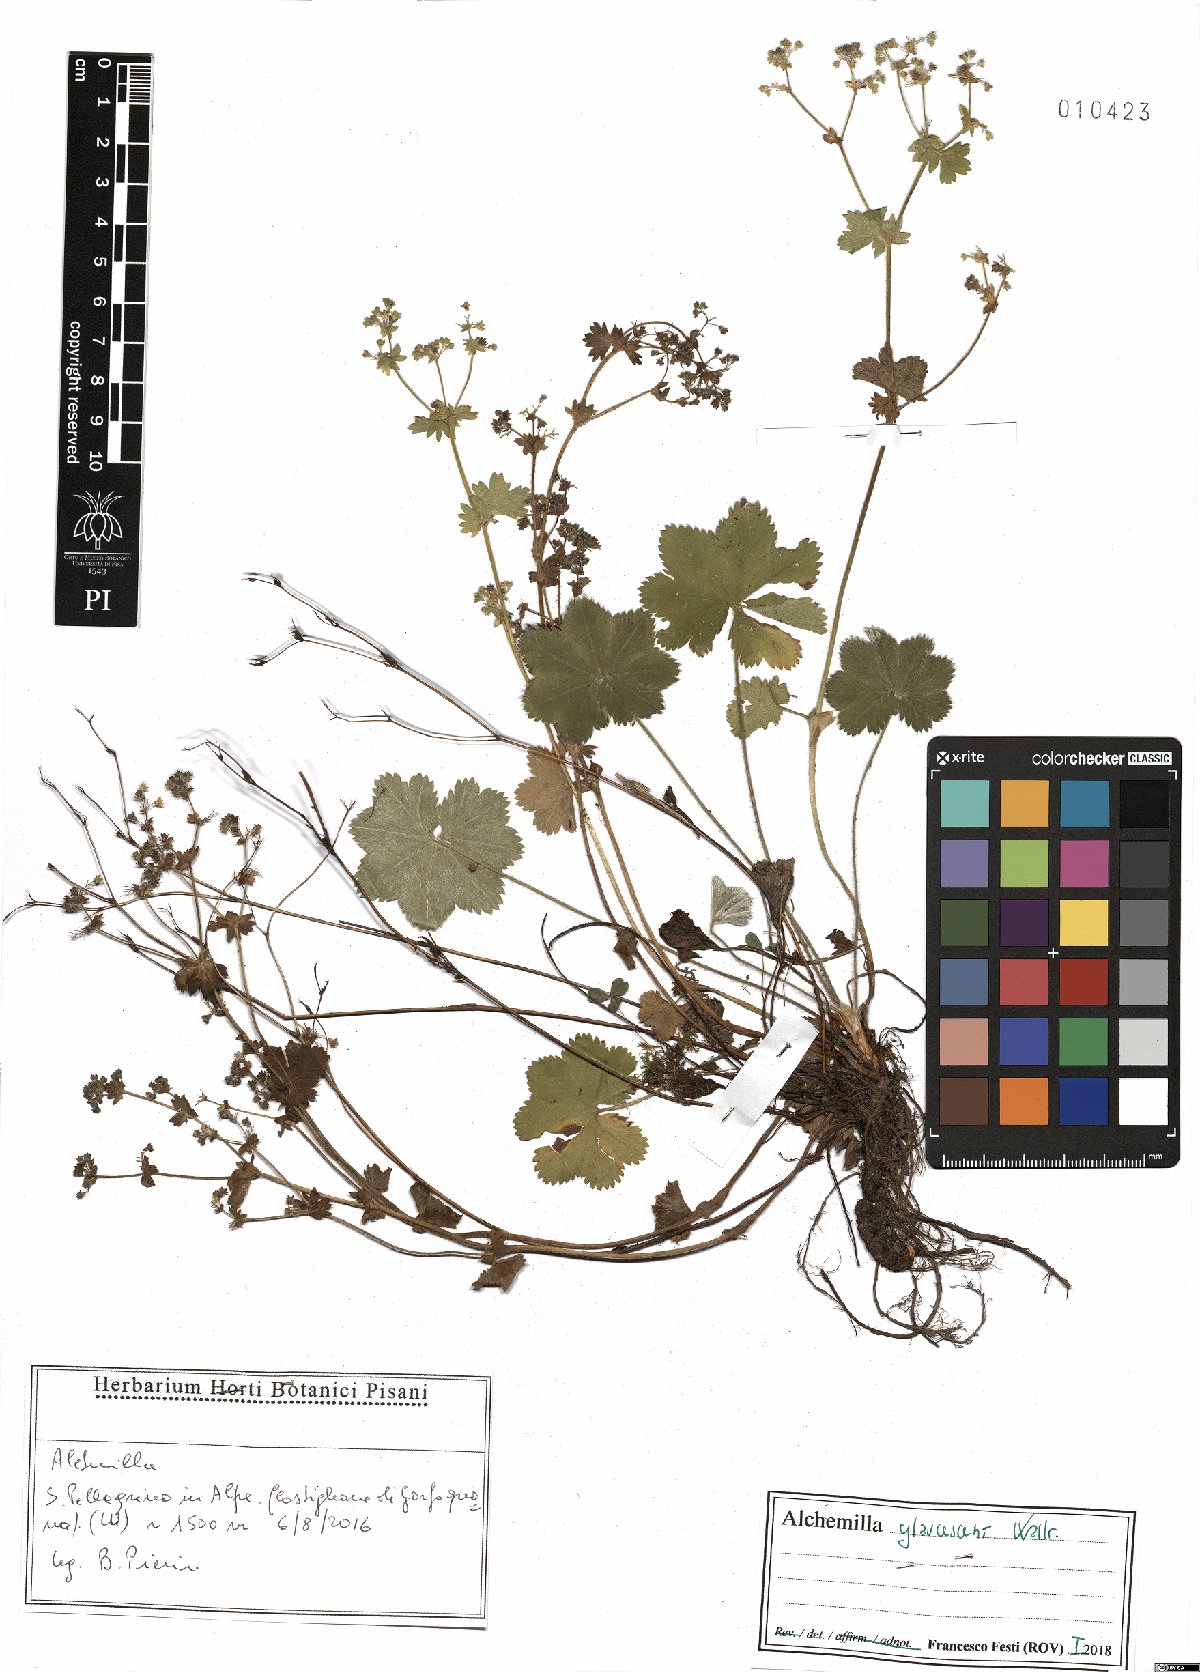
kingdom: Plantae
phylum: Tracheophyta
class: Magnoliopsida
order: Rosales
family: Rosaceae
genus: Alchemilla
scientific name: Alchemilla glaucescens
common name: Silky lady's mantle
